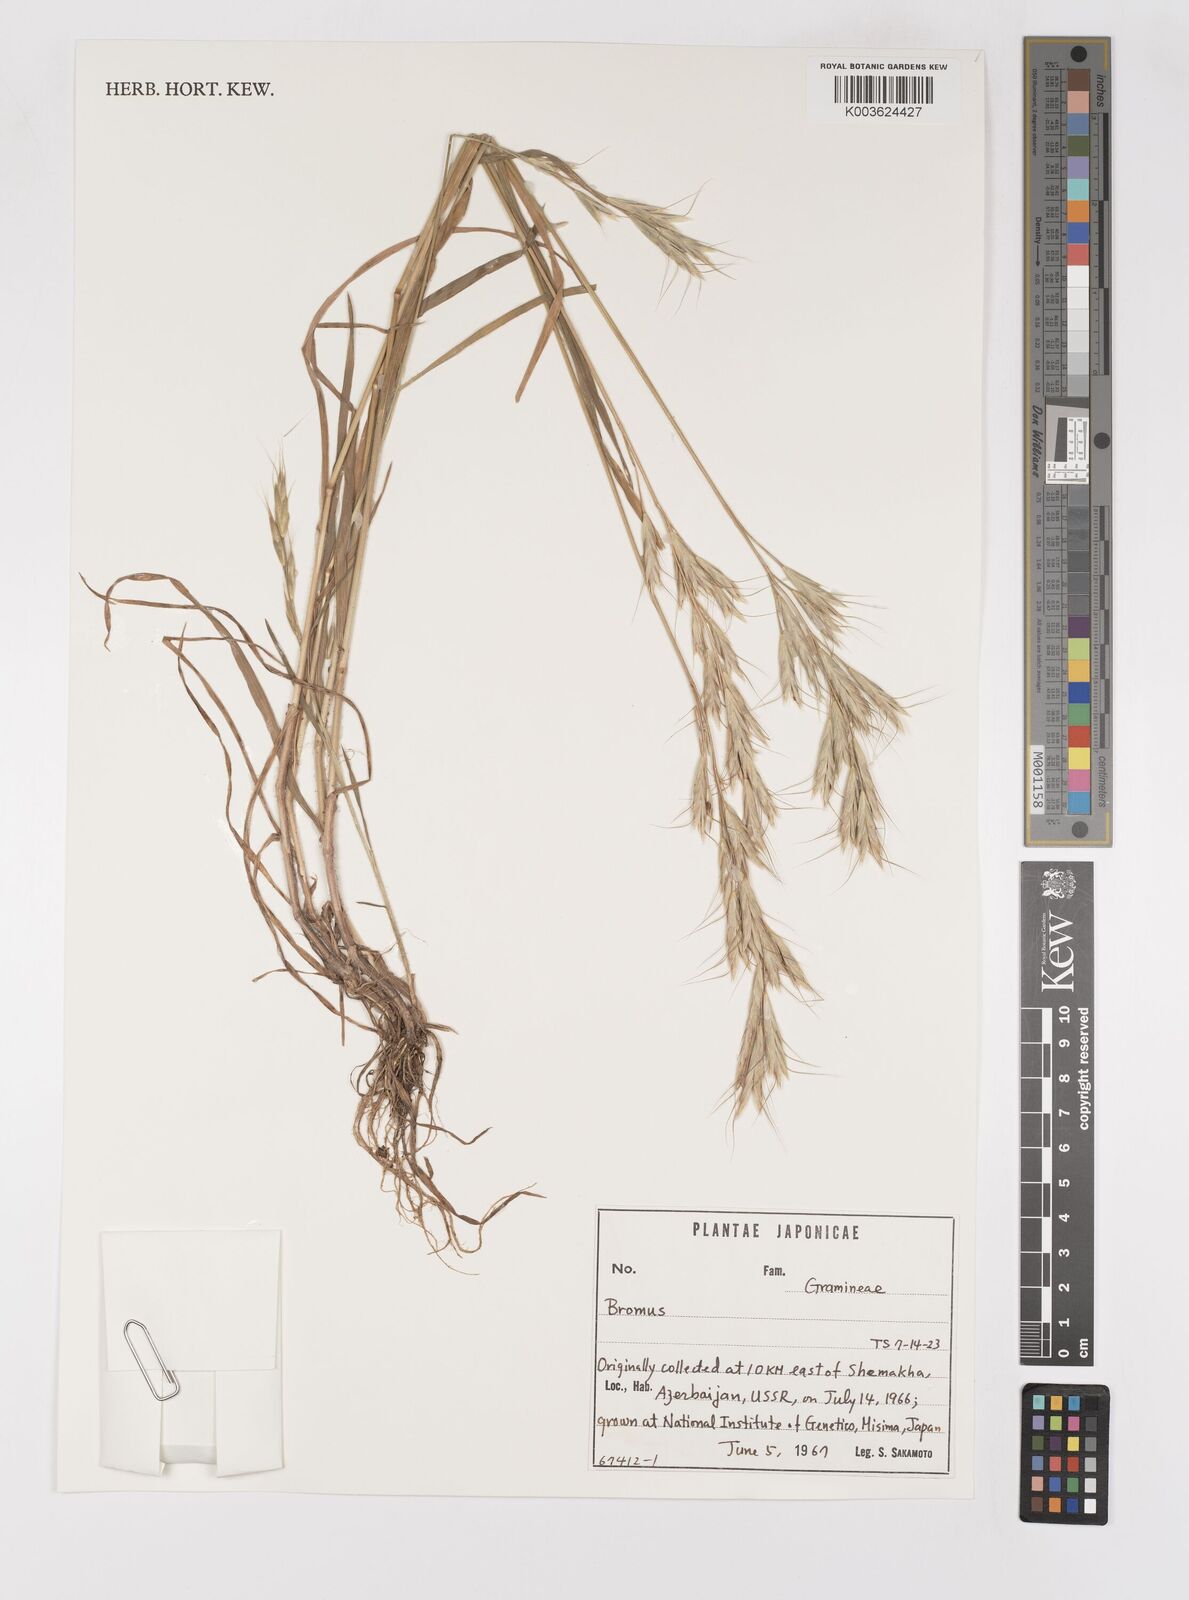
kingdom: Plantae
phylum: Tracheophyta
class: Liliopsida
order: Poales
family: Poaceae
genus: Bromus
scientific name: Bromus
